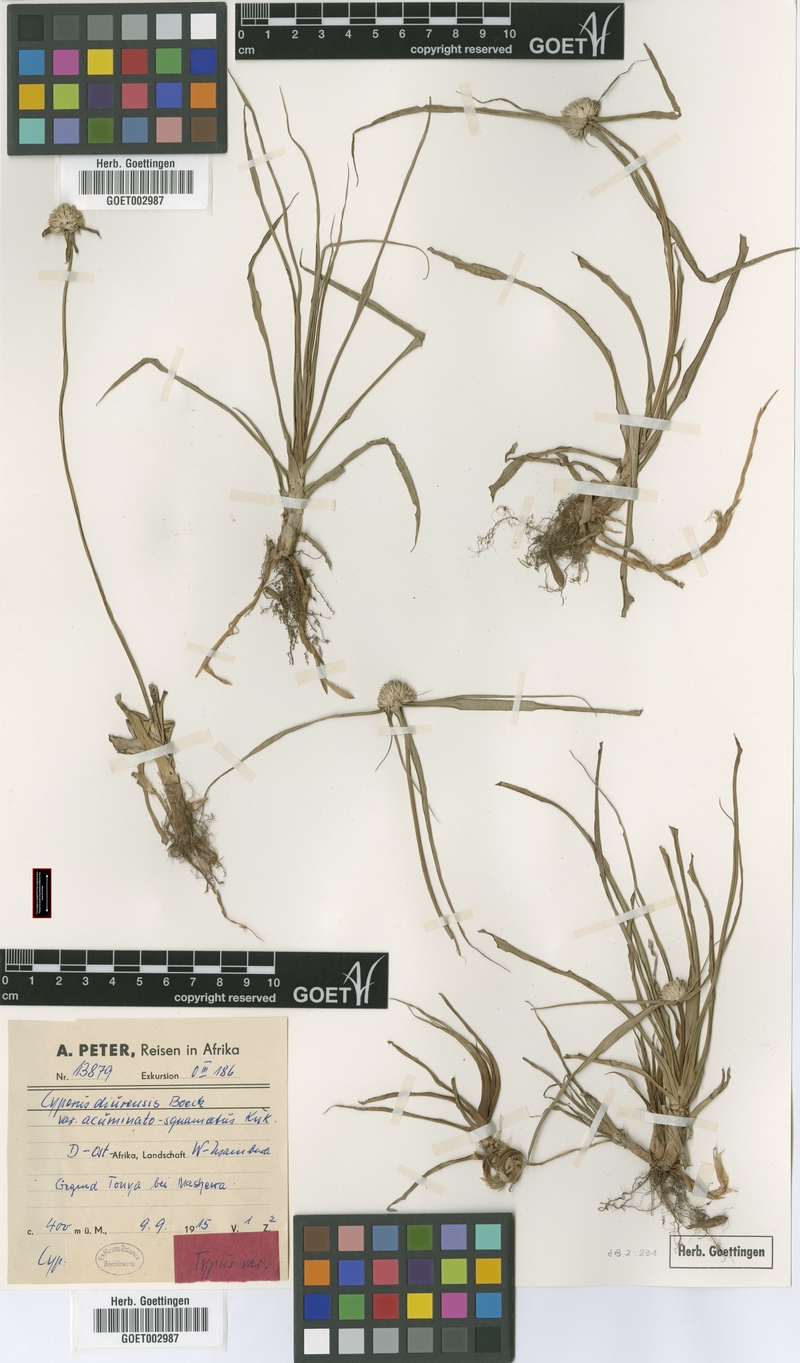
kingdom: Plantae
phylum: Tracheophyta
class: Liliopsida
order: Poales
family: Cyperaceae
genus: Cyperus
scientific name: Cyperus diurensis
